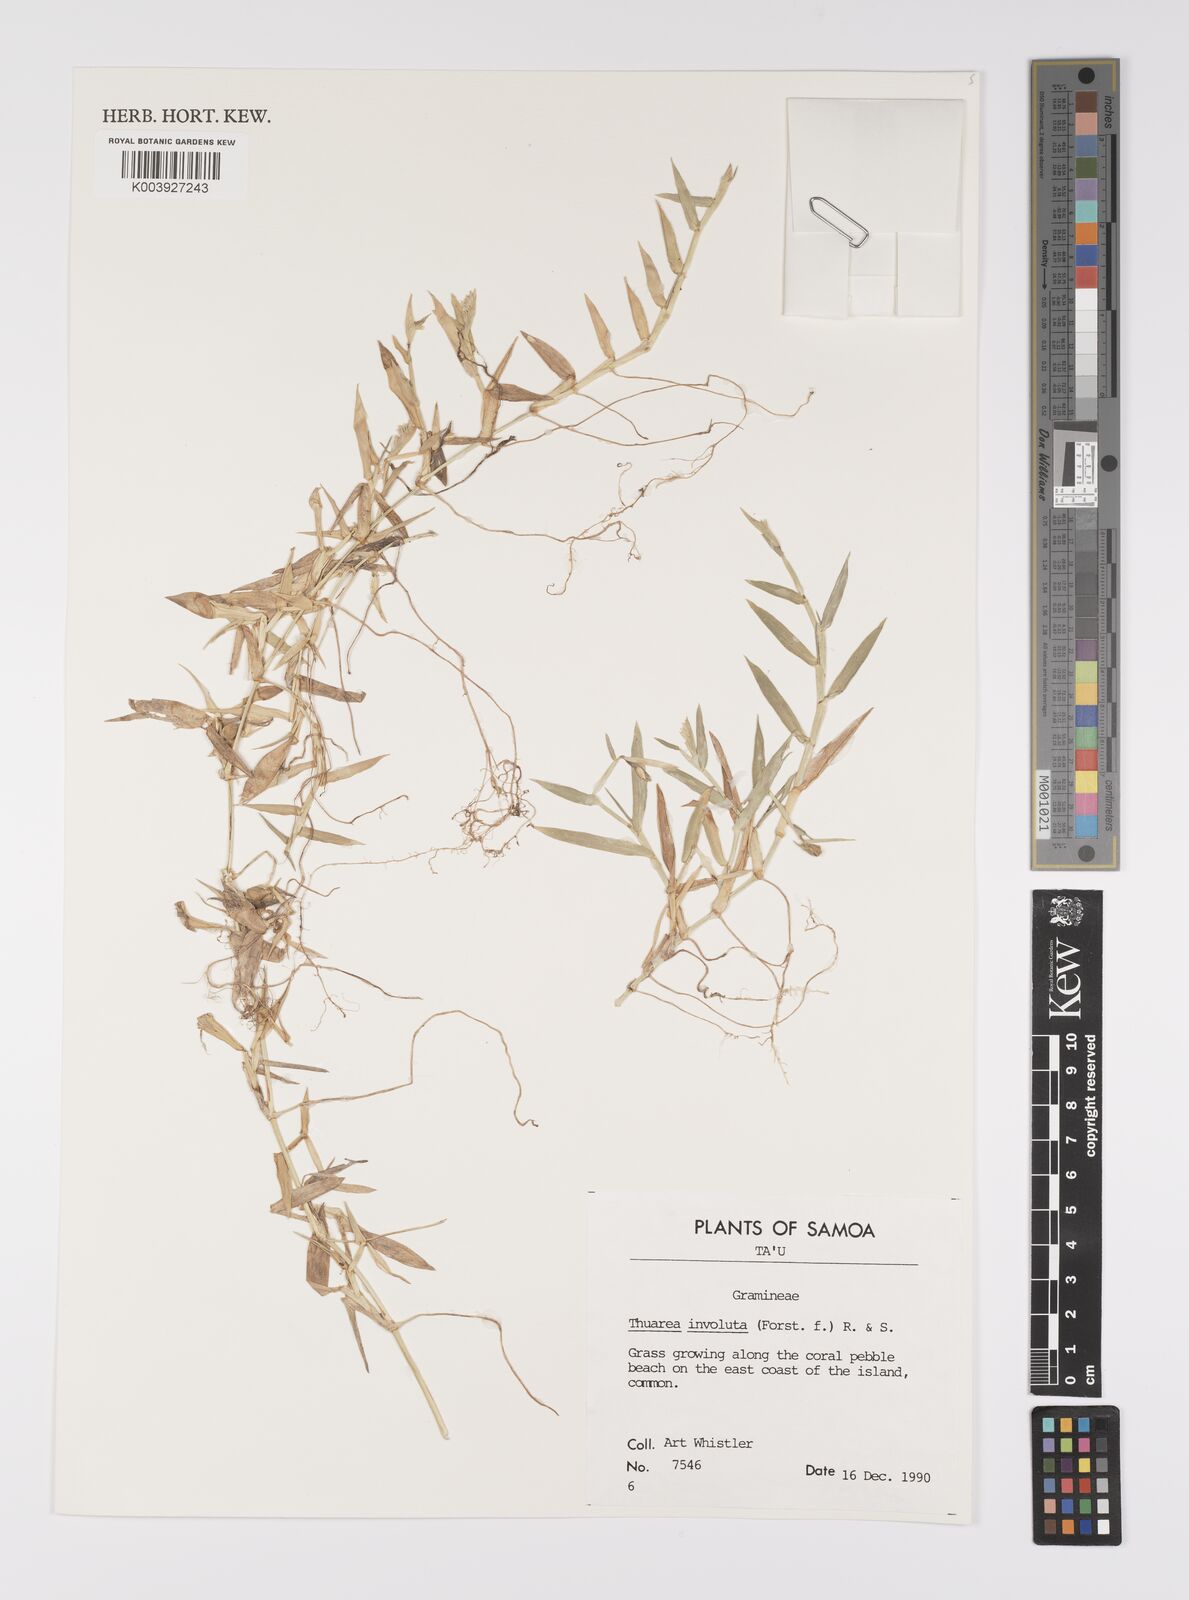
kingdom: Plantae
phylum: Tracheophyta
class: Liliopsida
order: Poales
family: Poaceae
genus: Thuarea
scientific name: Thuarea involuta
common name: Tropical beach grass
